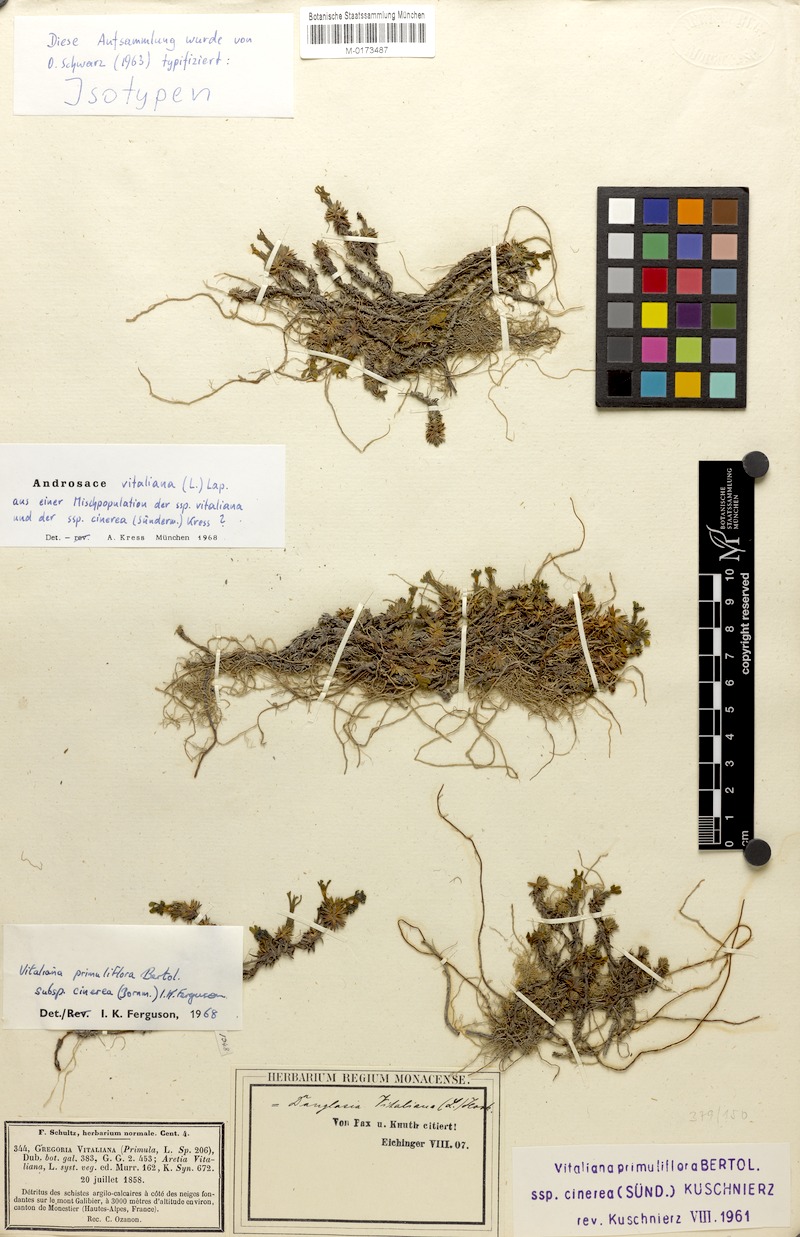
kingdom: Plantae
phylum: Tracheophyta
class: Magnoliopsida
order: Ericales
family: Primulaceae
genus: Androsace
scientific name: Androsace vitaliana
